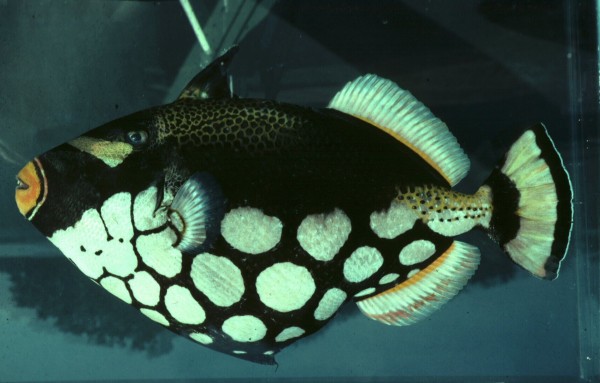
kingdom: Animalia
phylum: Chordata
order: Tetraodontiformes
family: Balistidae
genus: Balistoides
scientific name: Balistoides conspicillum
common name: Clown triggerfish
